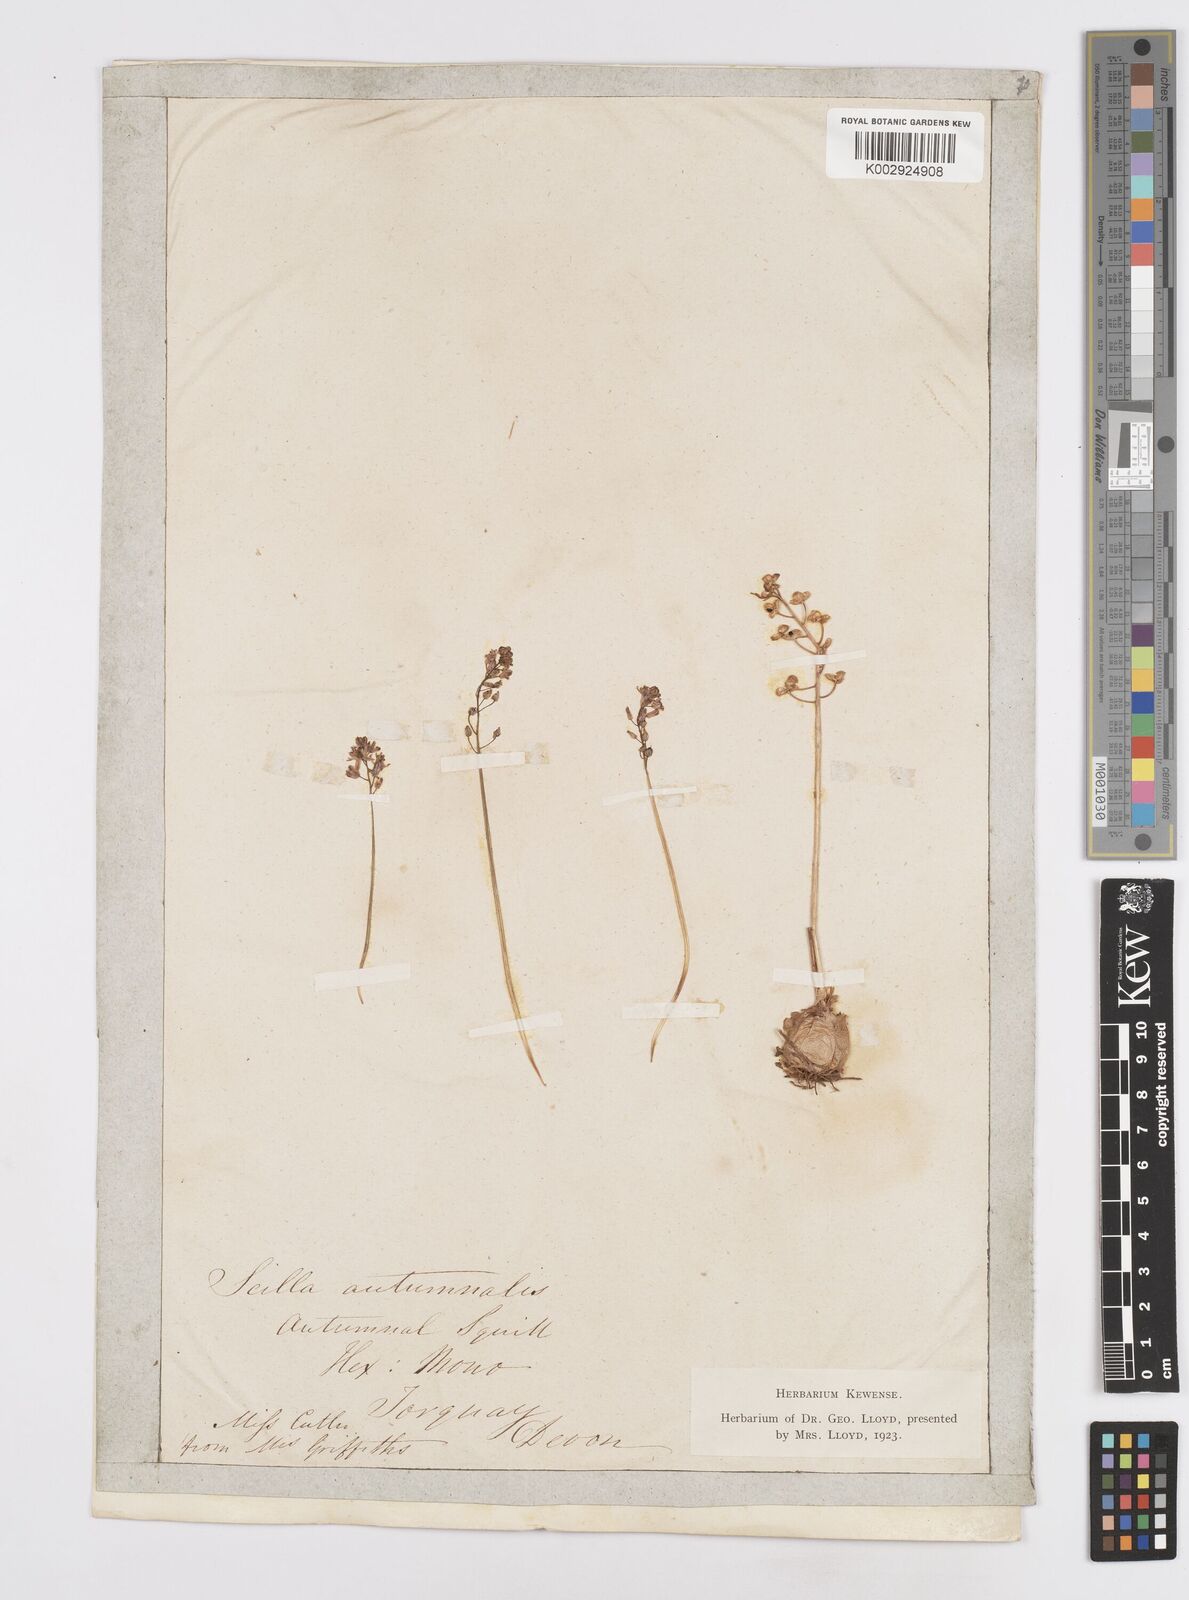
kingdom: Plantae
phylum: Tracheophyta
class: Liliopsida
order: Asparagales
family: Asparagaceae
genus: Prospero
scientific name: Prospero autumnale
